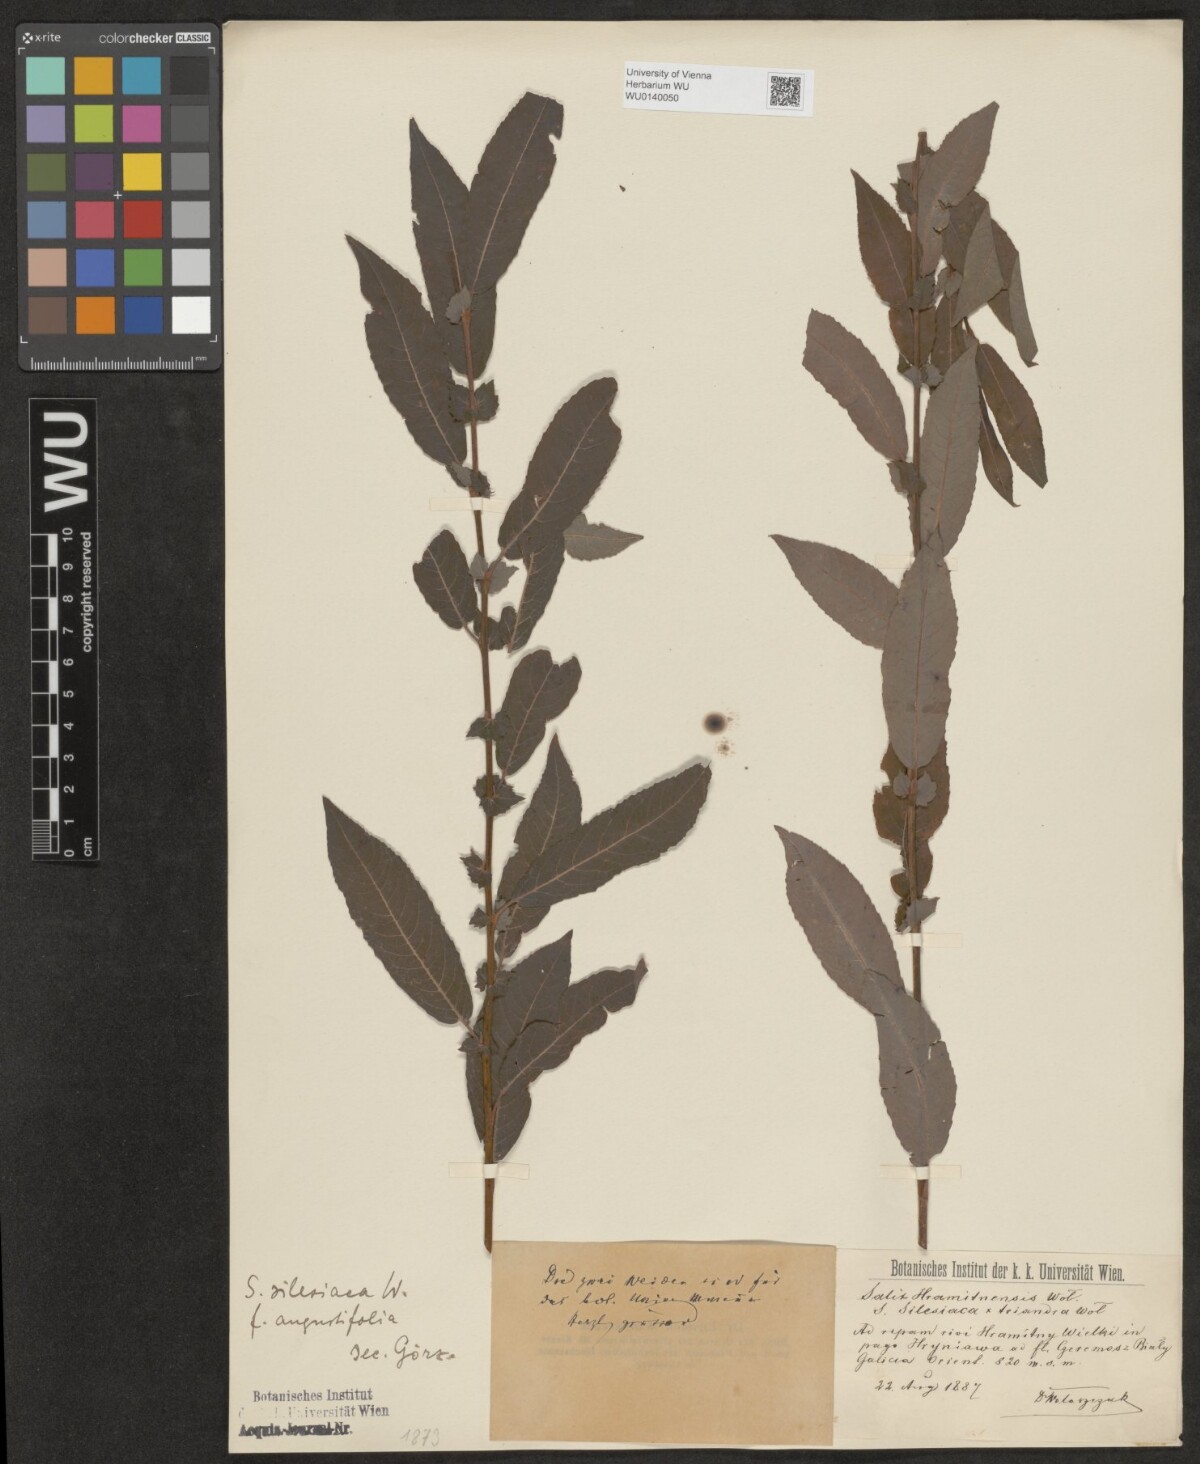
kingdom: Plantae
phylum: Tracheophyta
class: Magnoliopsida
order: Malpighiales
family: Salicaceae
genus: Salix
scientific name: Salix silesiaca
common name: Silesian willow
